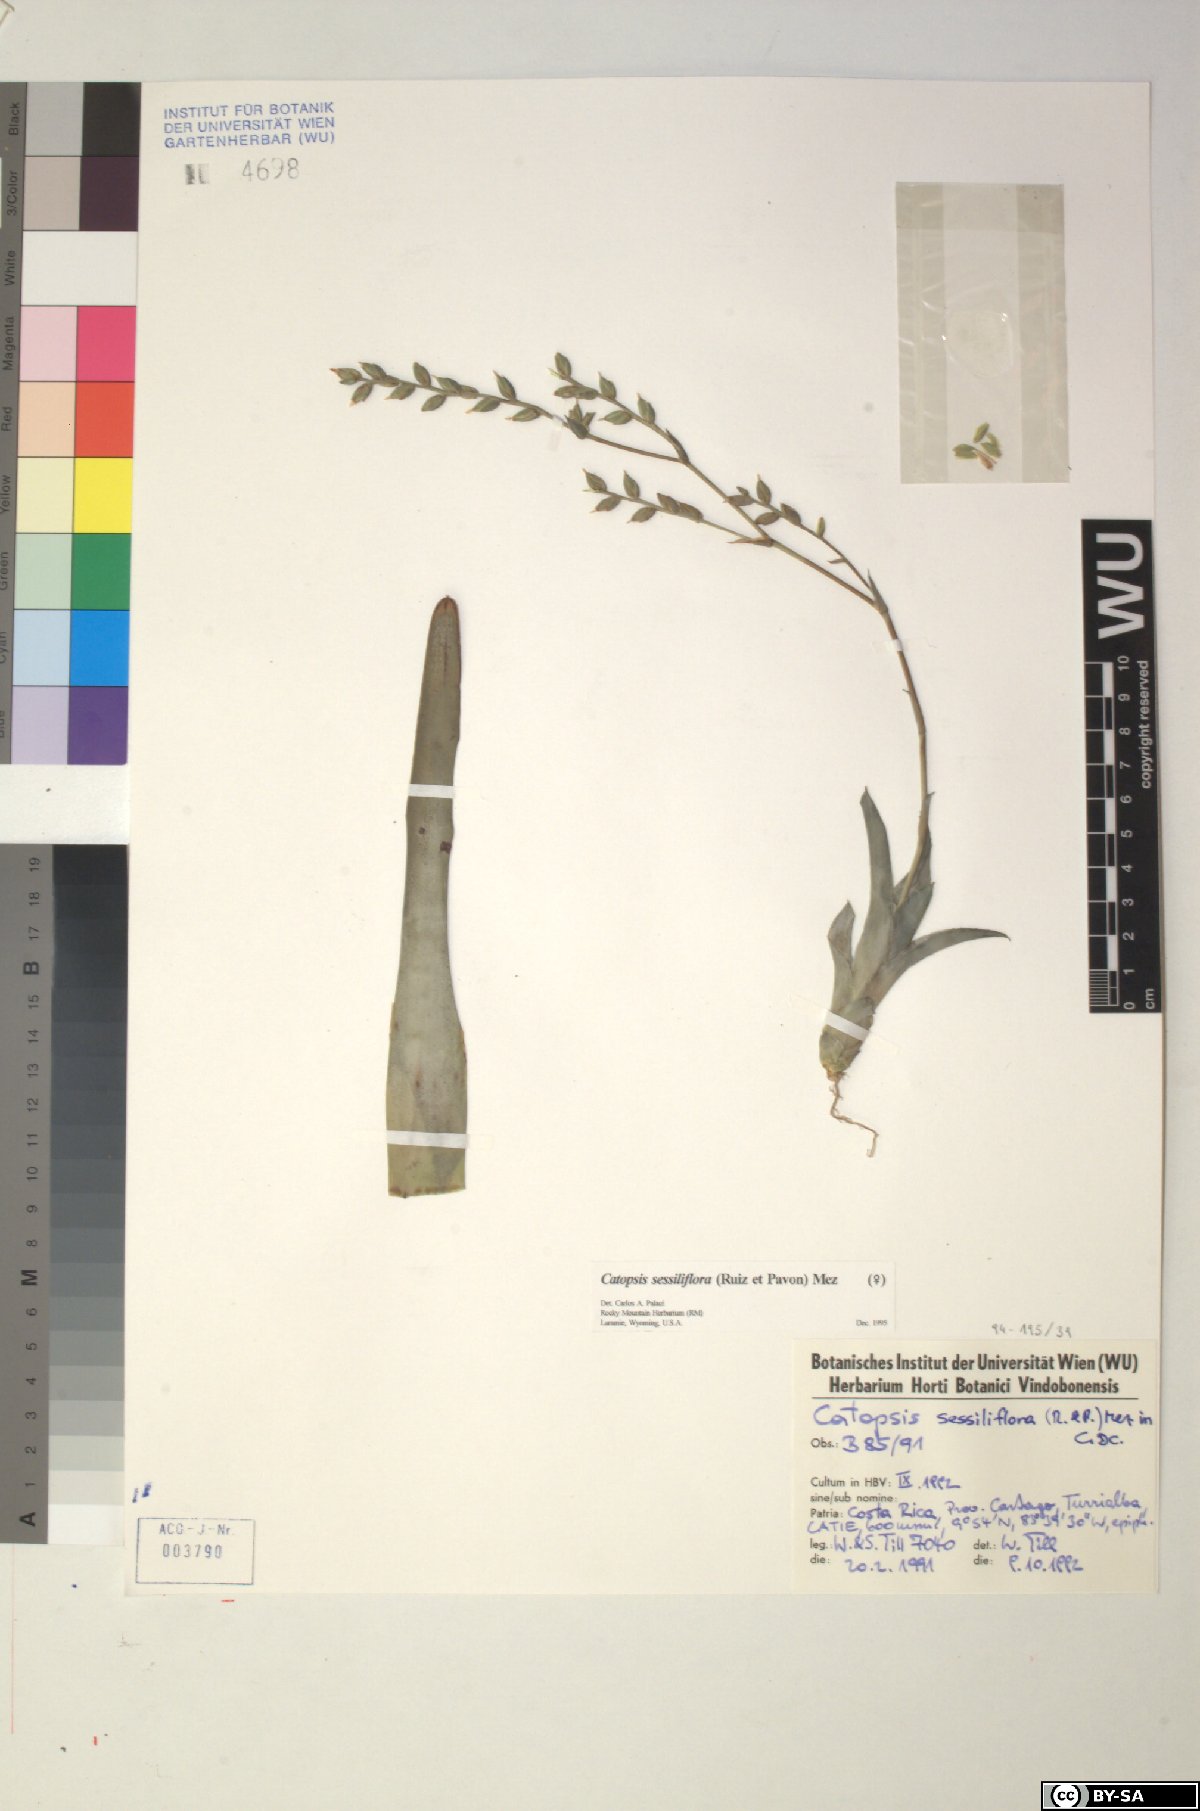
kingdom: Plantae
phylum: Tracheophyta
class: Liliopsida
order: Poales
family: Bromeliaceae
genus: Catopsis
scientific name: Catopsis sessiliflora
